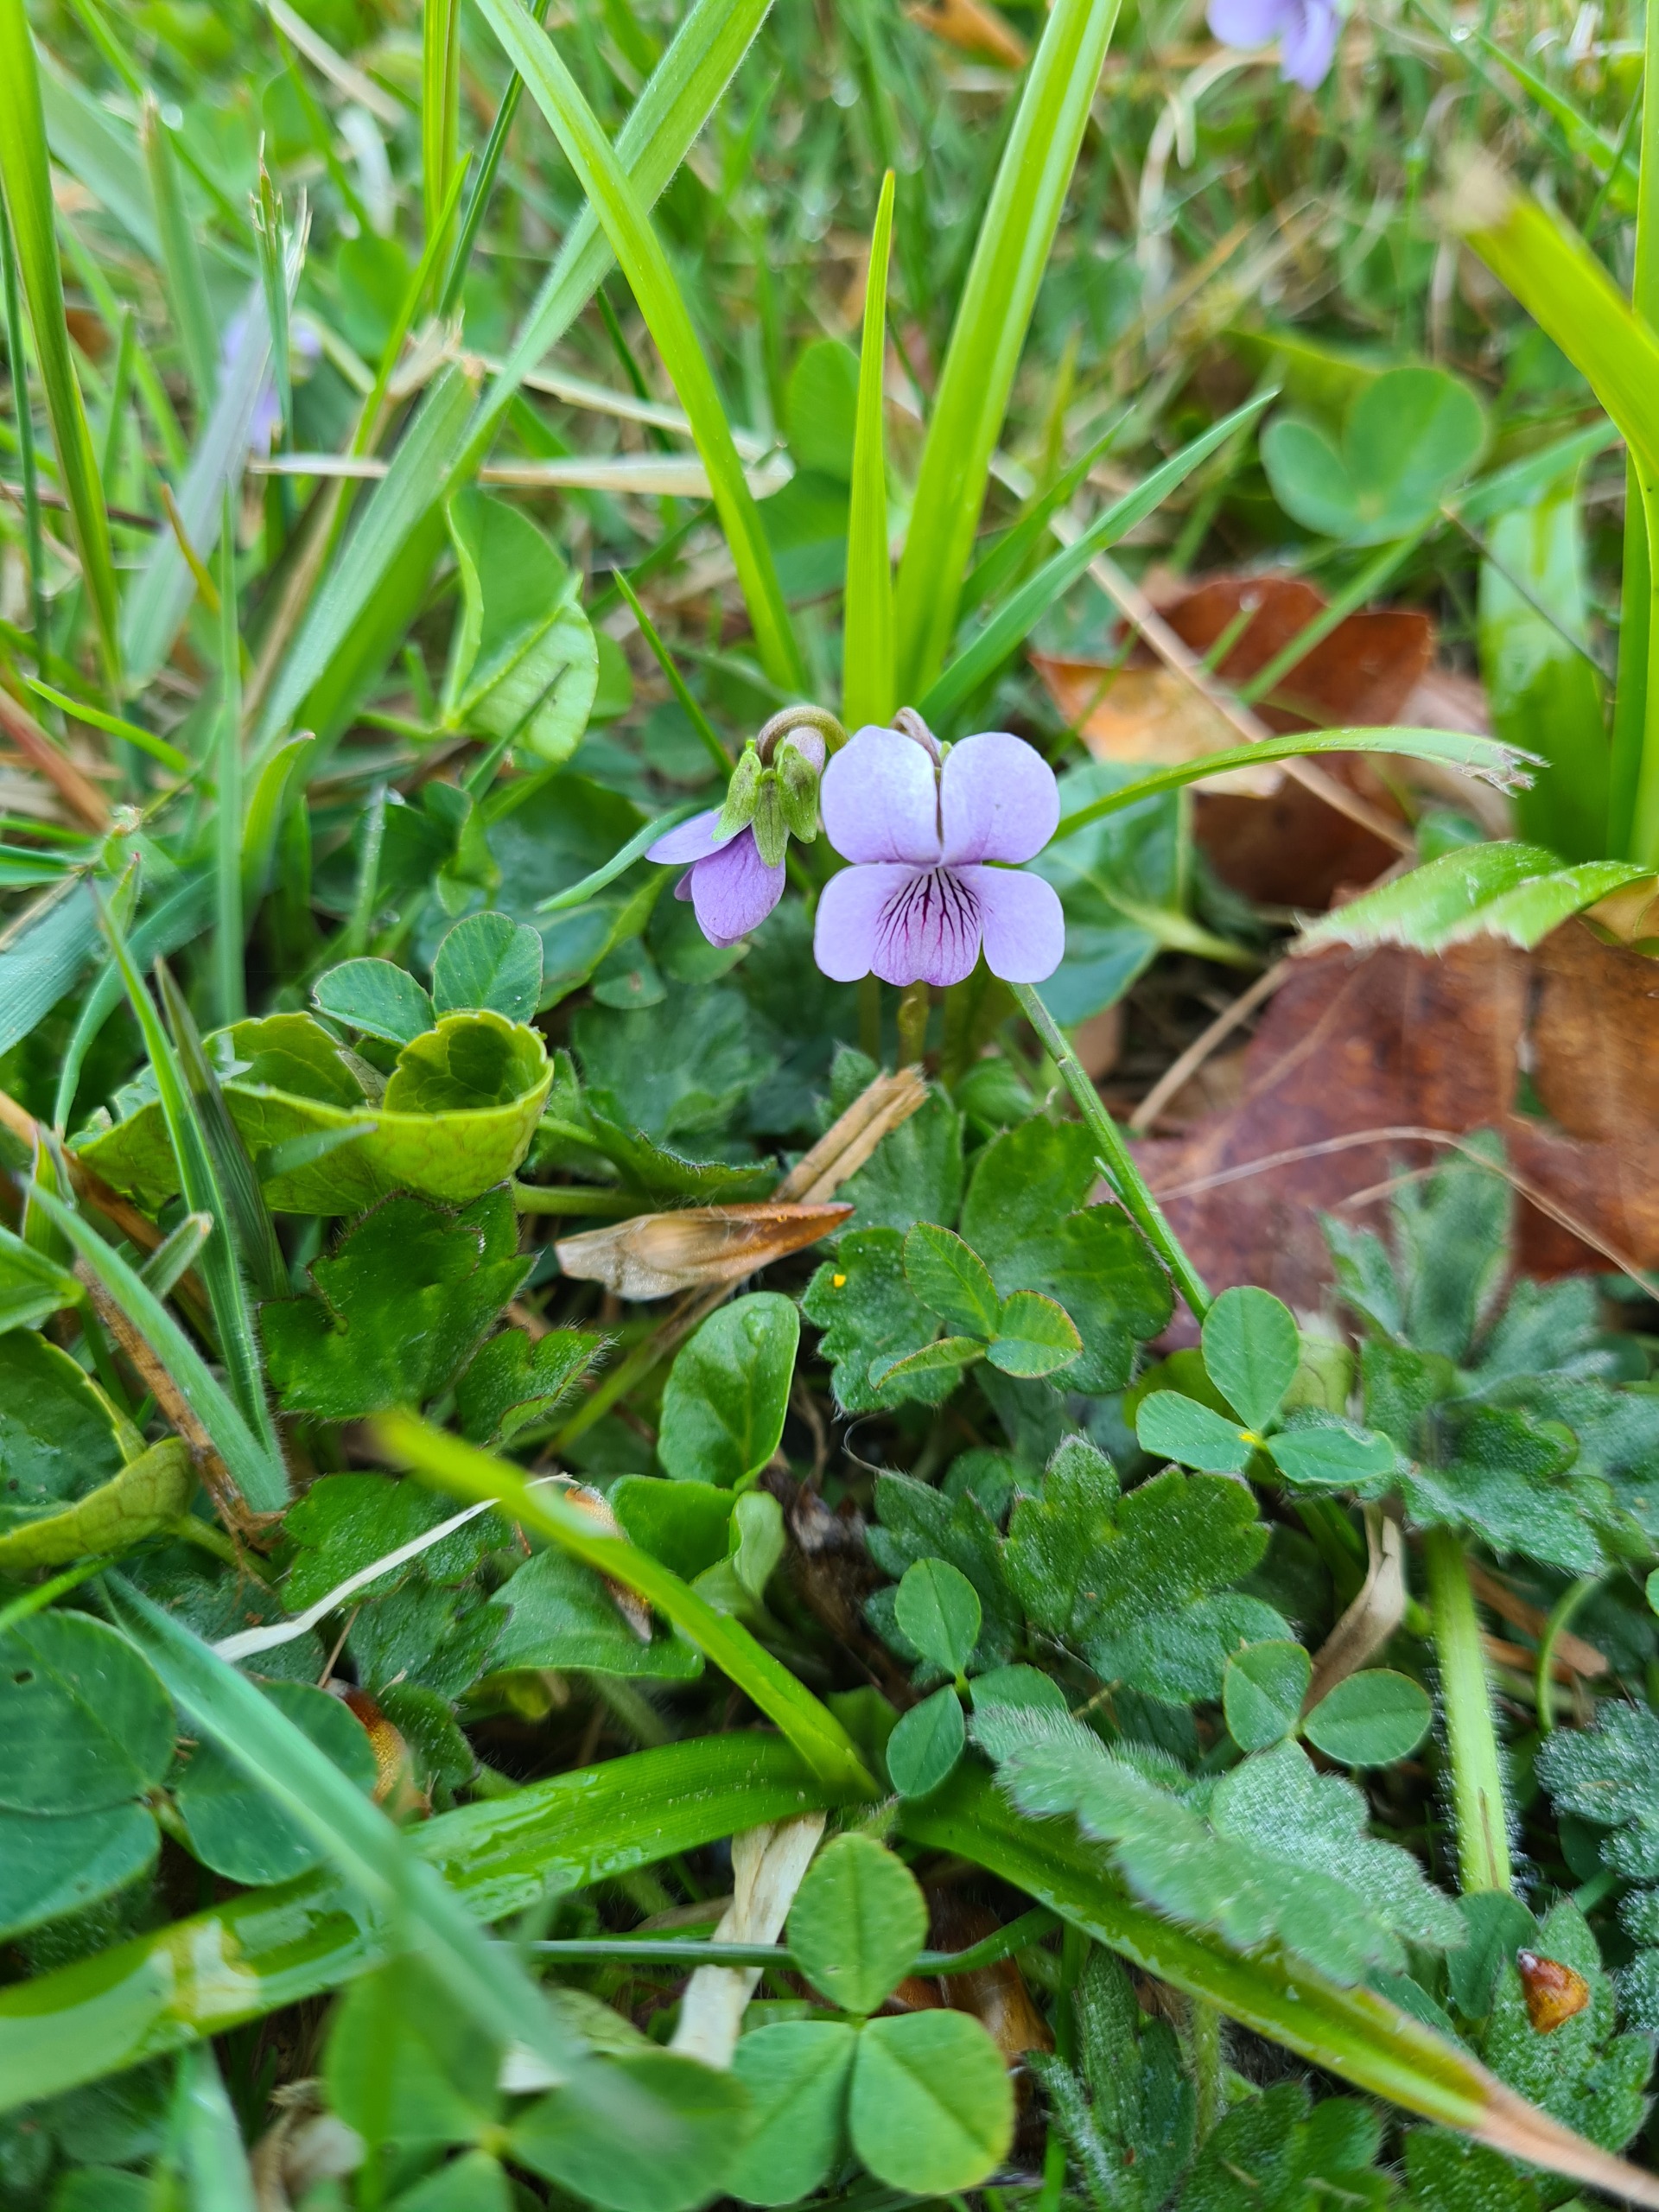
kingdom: Plantae
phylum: Tracheophyta
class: Magnoliopsida
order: Malpighiales
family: Violaceae
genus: Viola
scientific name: Viola palustris
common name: Eng-viol
